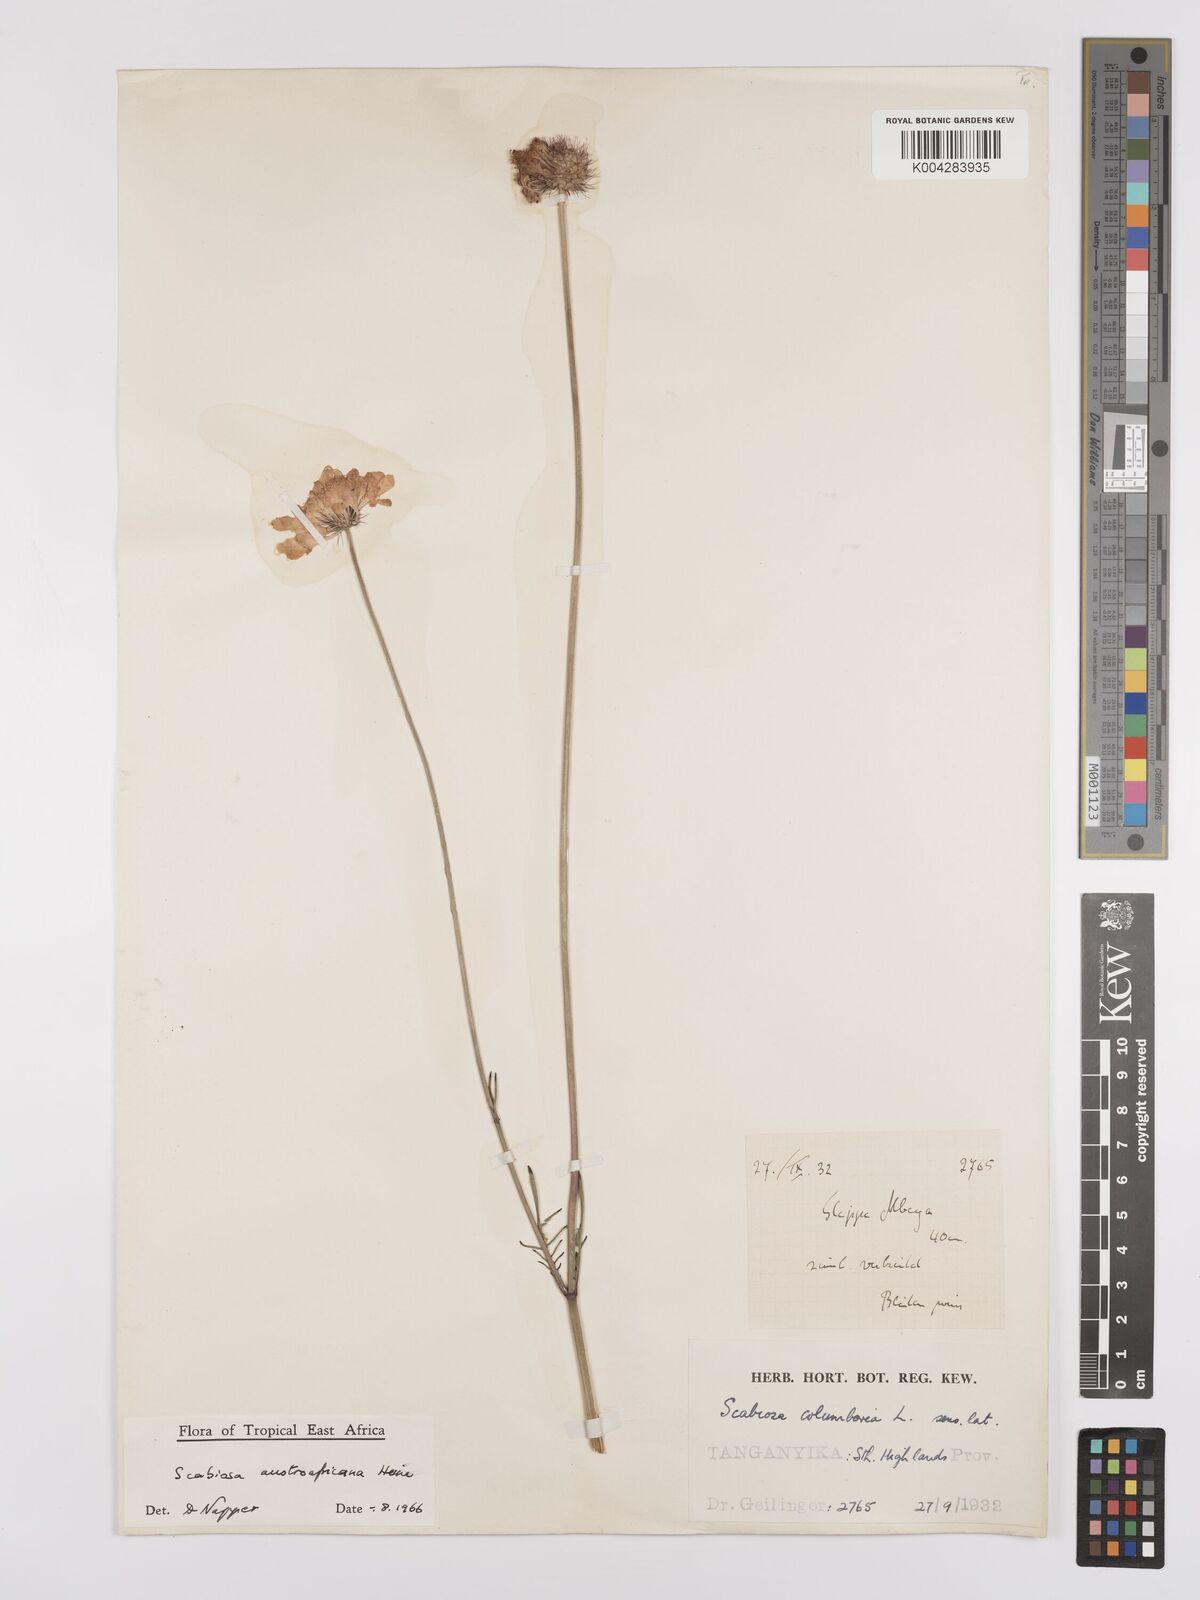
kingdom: Plantae
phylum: Tracheophyta
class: Magnoliopsida
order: Dipsacales
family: Caprifoliaceae
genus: Scabiosa
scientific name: Scabiosa austroafricana
